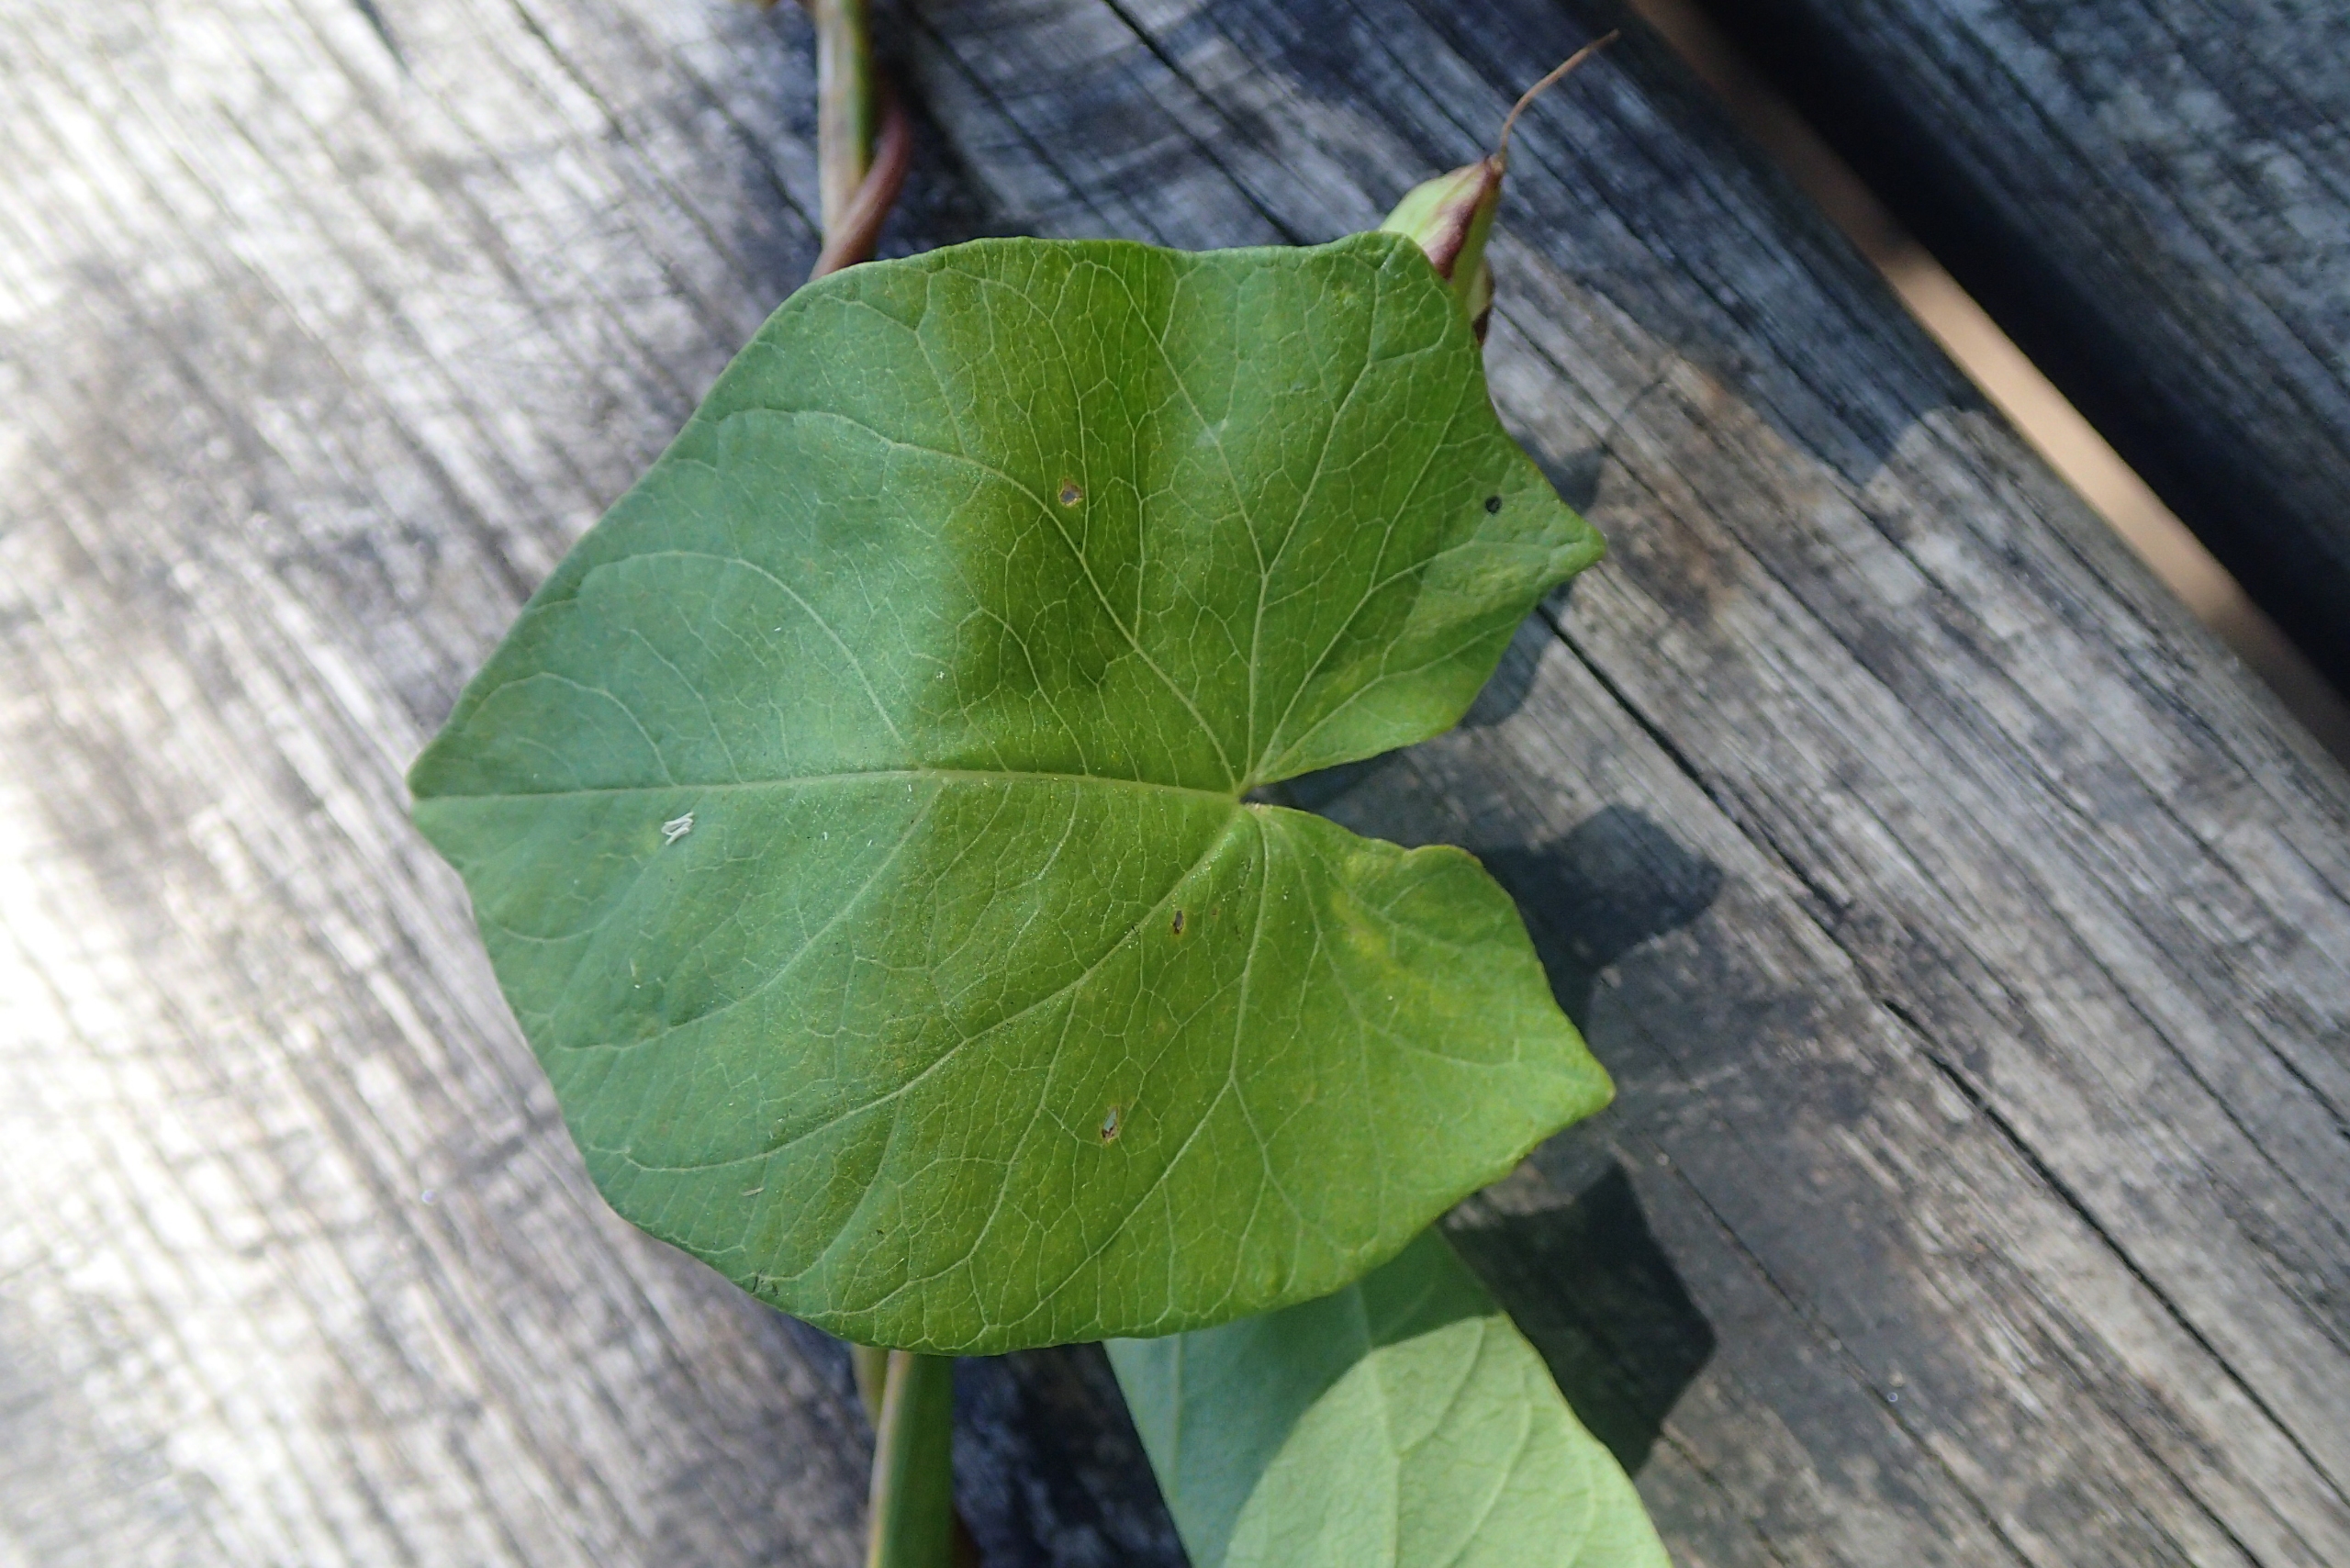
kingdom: Plantae
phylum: Tracheophyta
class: Magnoliopsida
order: Solanales
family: Convolvulaceae
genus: Calystegia
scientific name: Calystegia sepium
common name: Gærde-snerle (underart)
